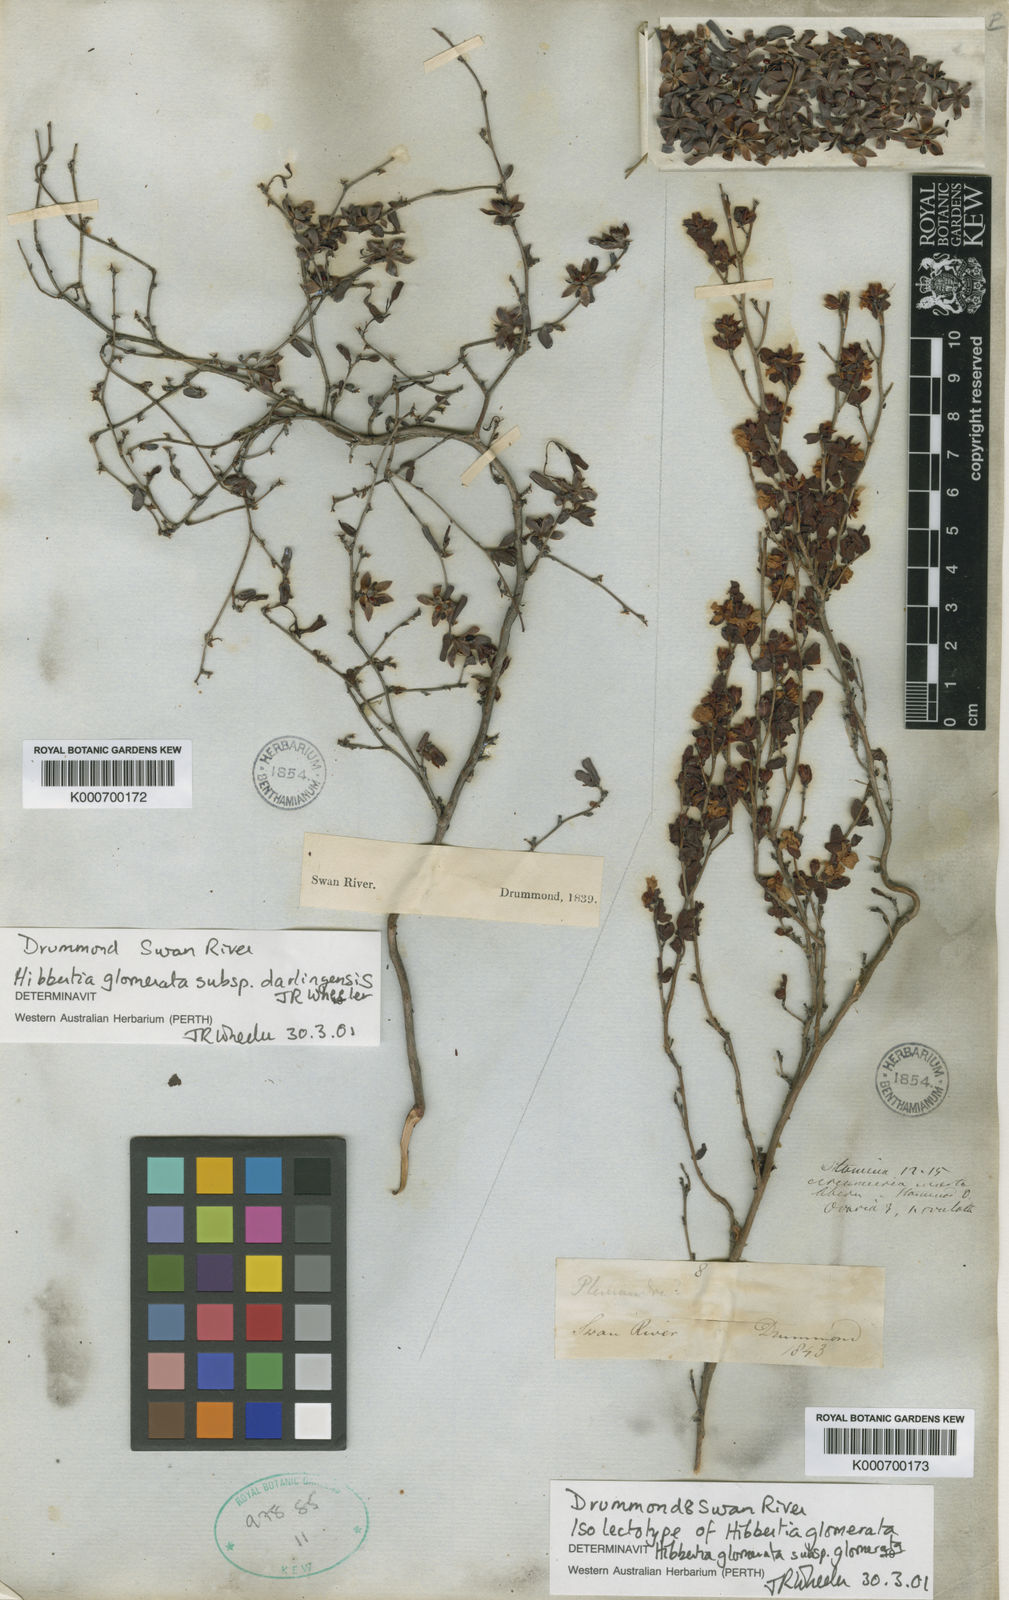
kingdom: Plantae
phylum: Tracheophyta
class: Magnoliopsida
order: Dilleniales
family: Dilleniaceae
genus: Hibbertia
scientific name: Hibbertia glomerata
